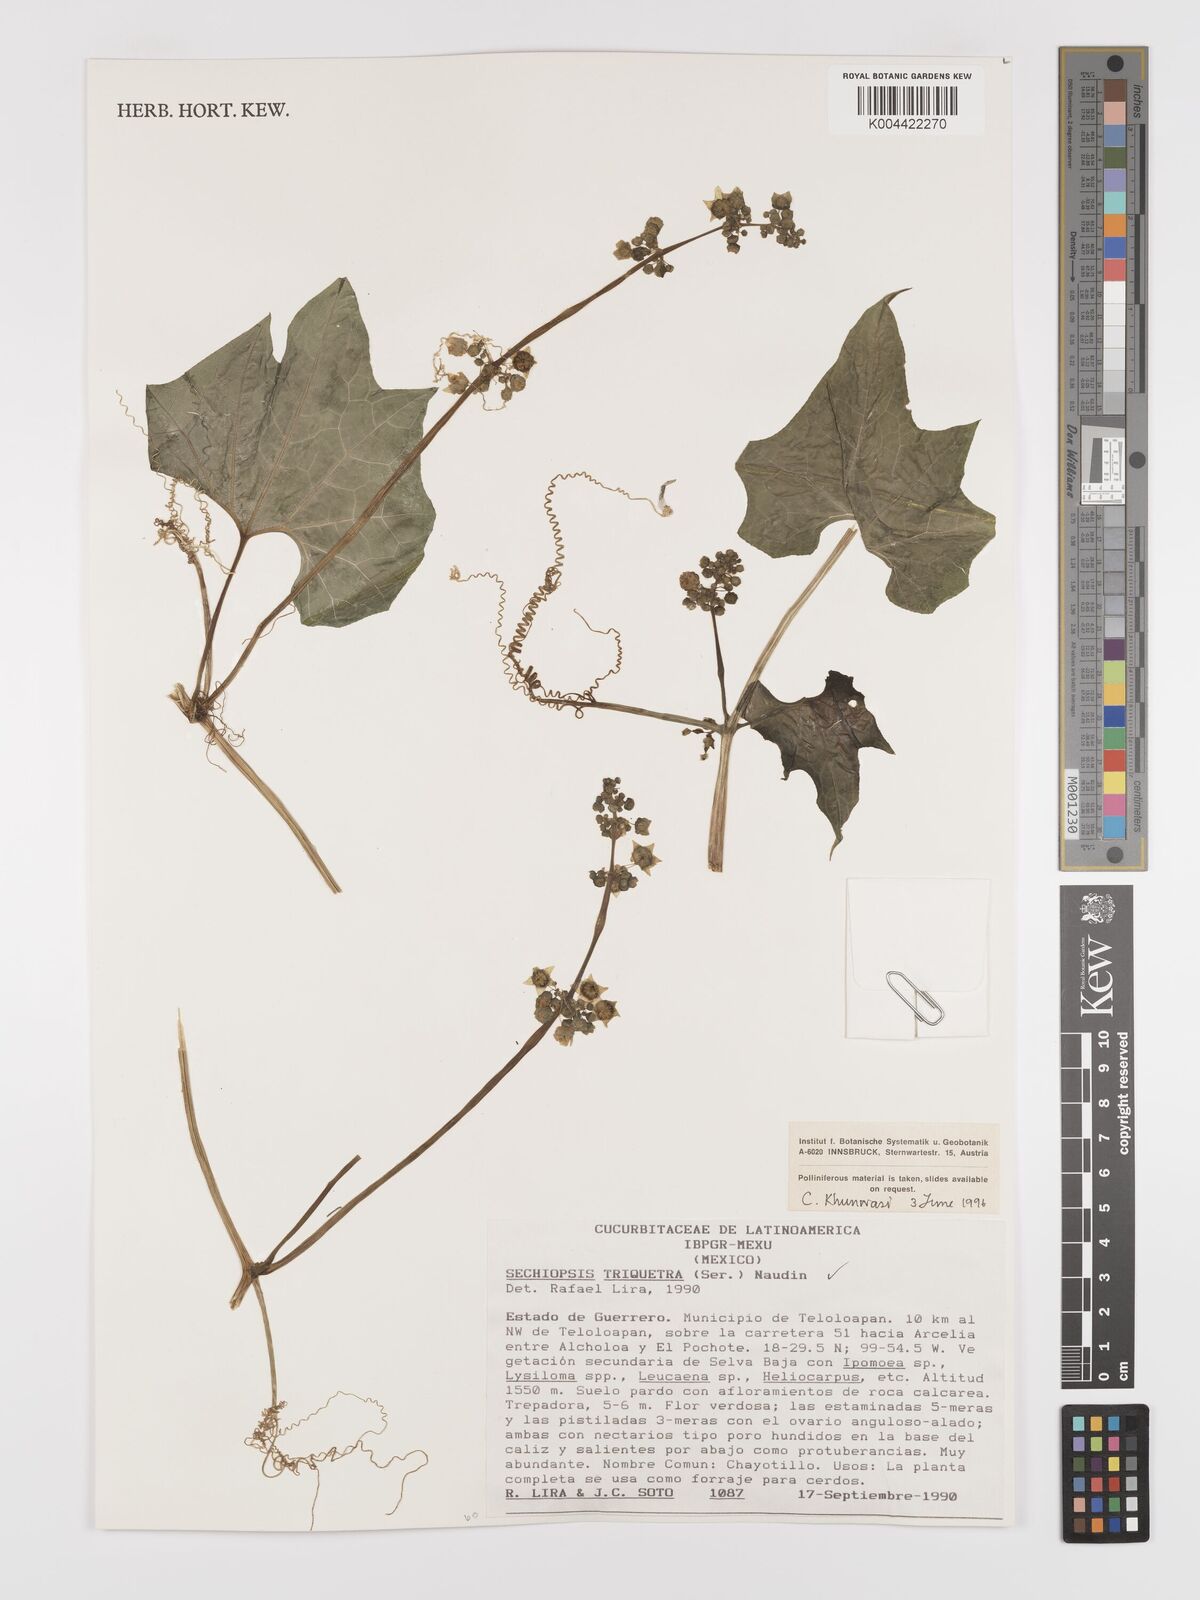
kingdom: Plantae
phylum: Tracheophyta
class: Magnoliopsida
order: Cucurbitales
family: Cucurbitaceae
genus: Sechiopsis
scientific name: Sechiopsis triqueter
